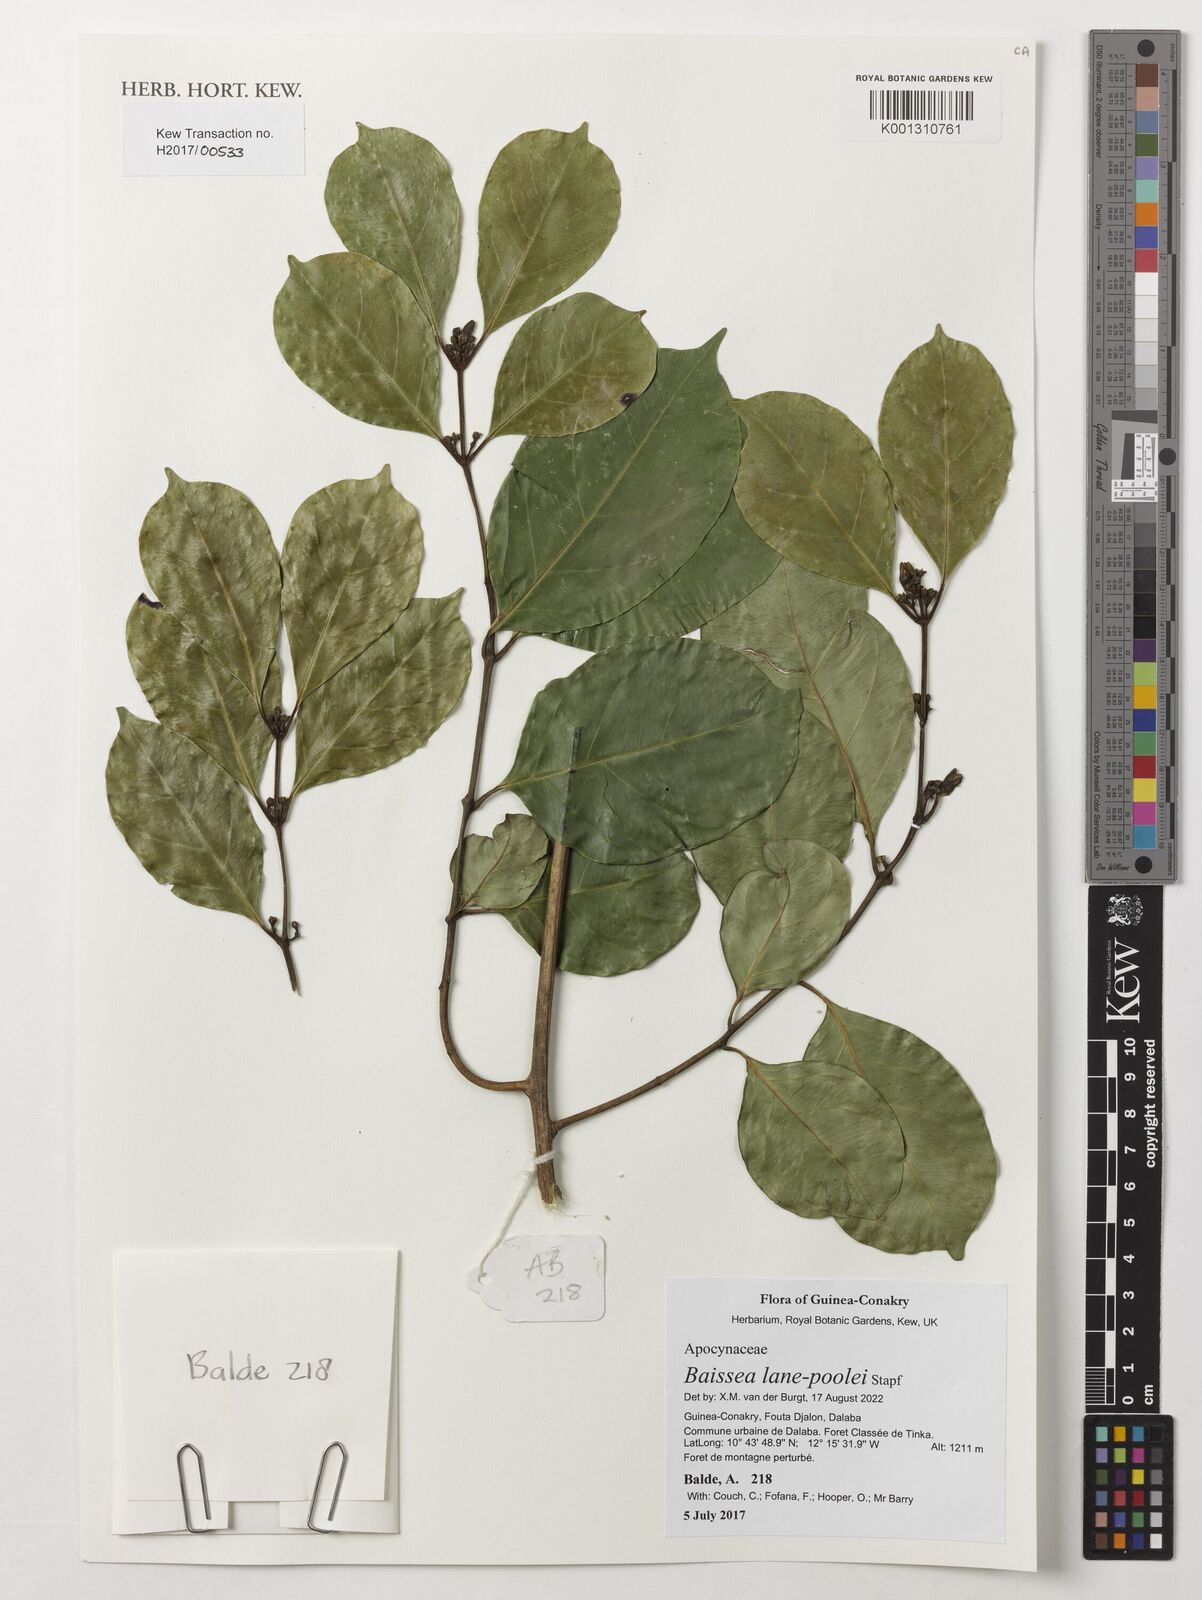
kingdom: Plantae
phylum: Tracheophyta
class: Magnoliopsida
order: Gentianales
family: Apocynaceae
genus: Baissea
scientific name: Baissea lane-poolei
